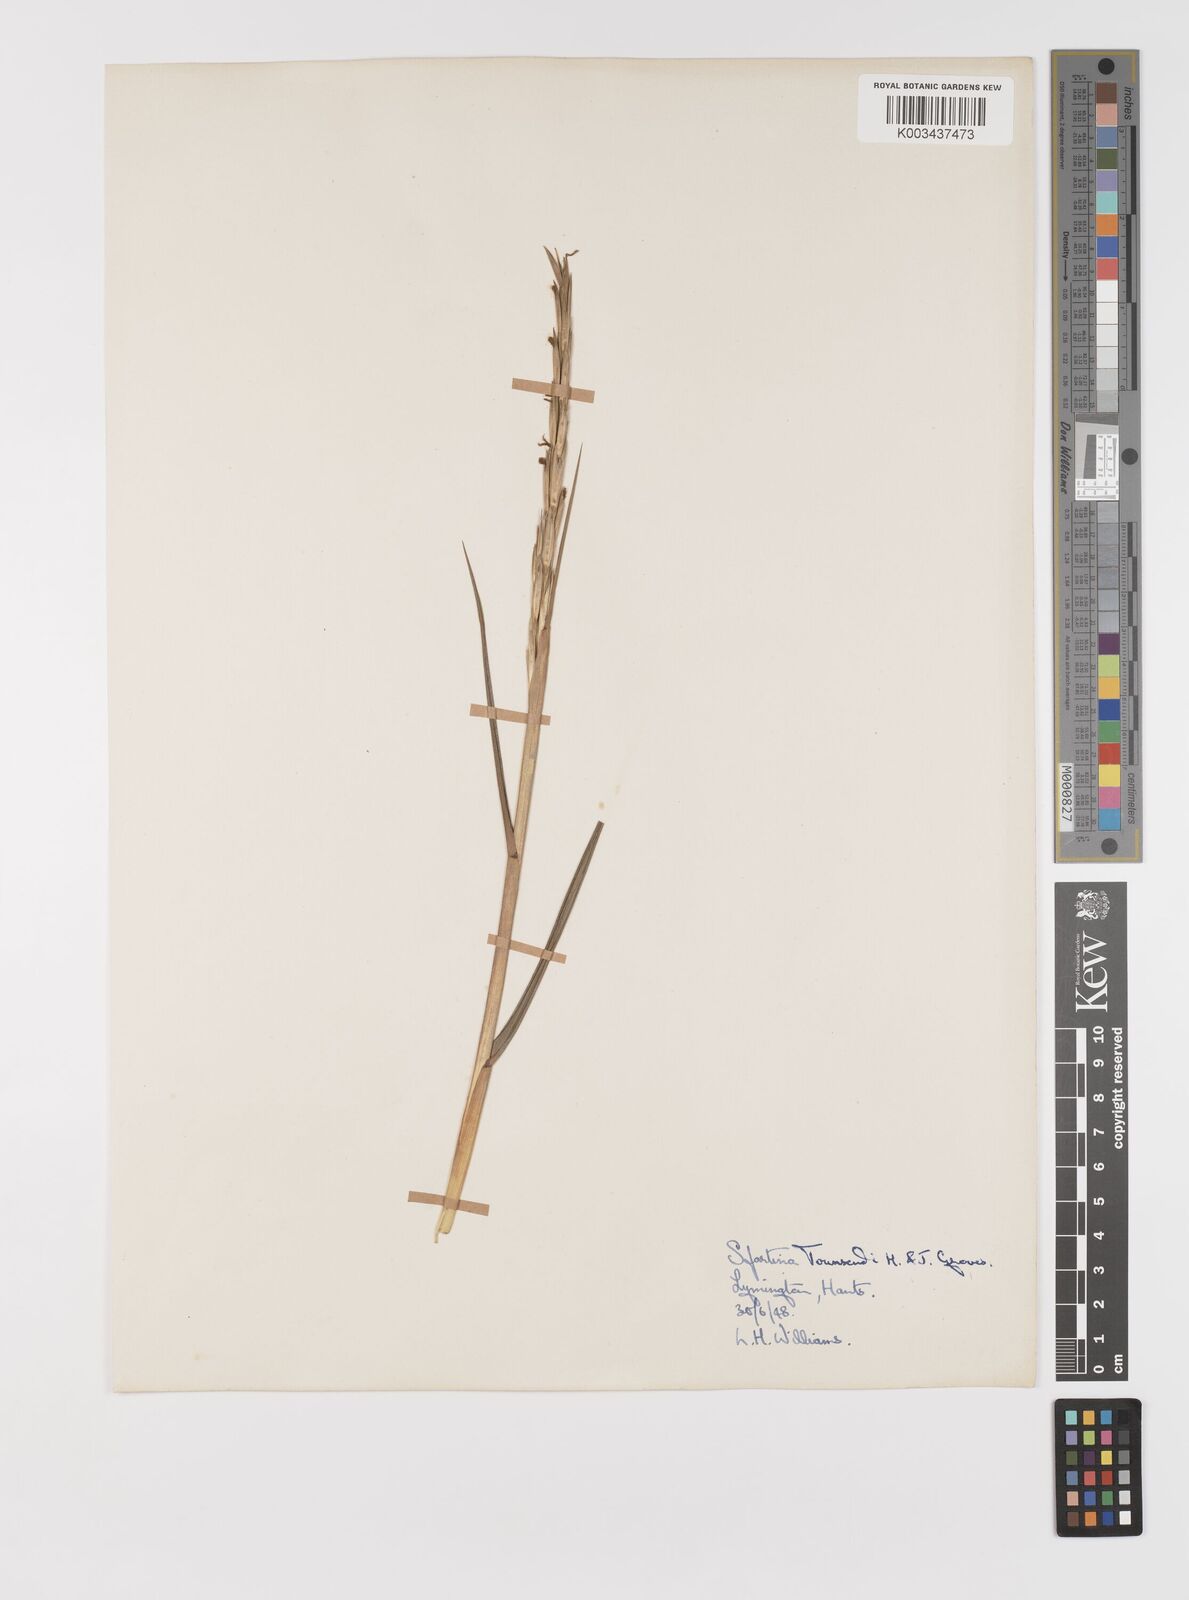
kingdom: Plantae
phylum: Tracheophyta
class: Liliopsida
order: Poales
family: Poaceae
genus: Sporobolus
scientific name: Sporobolus anglicus
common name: English cordgrass
